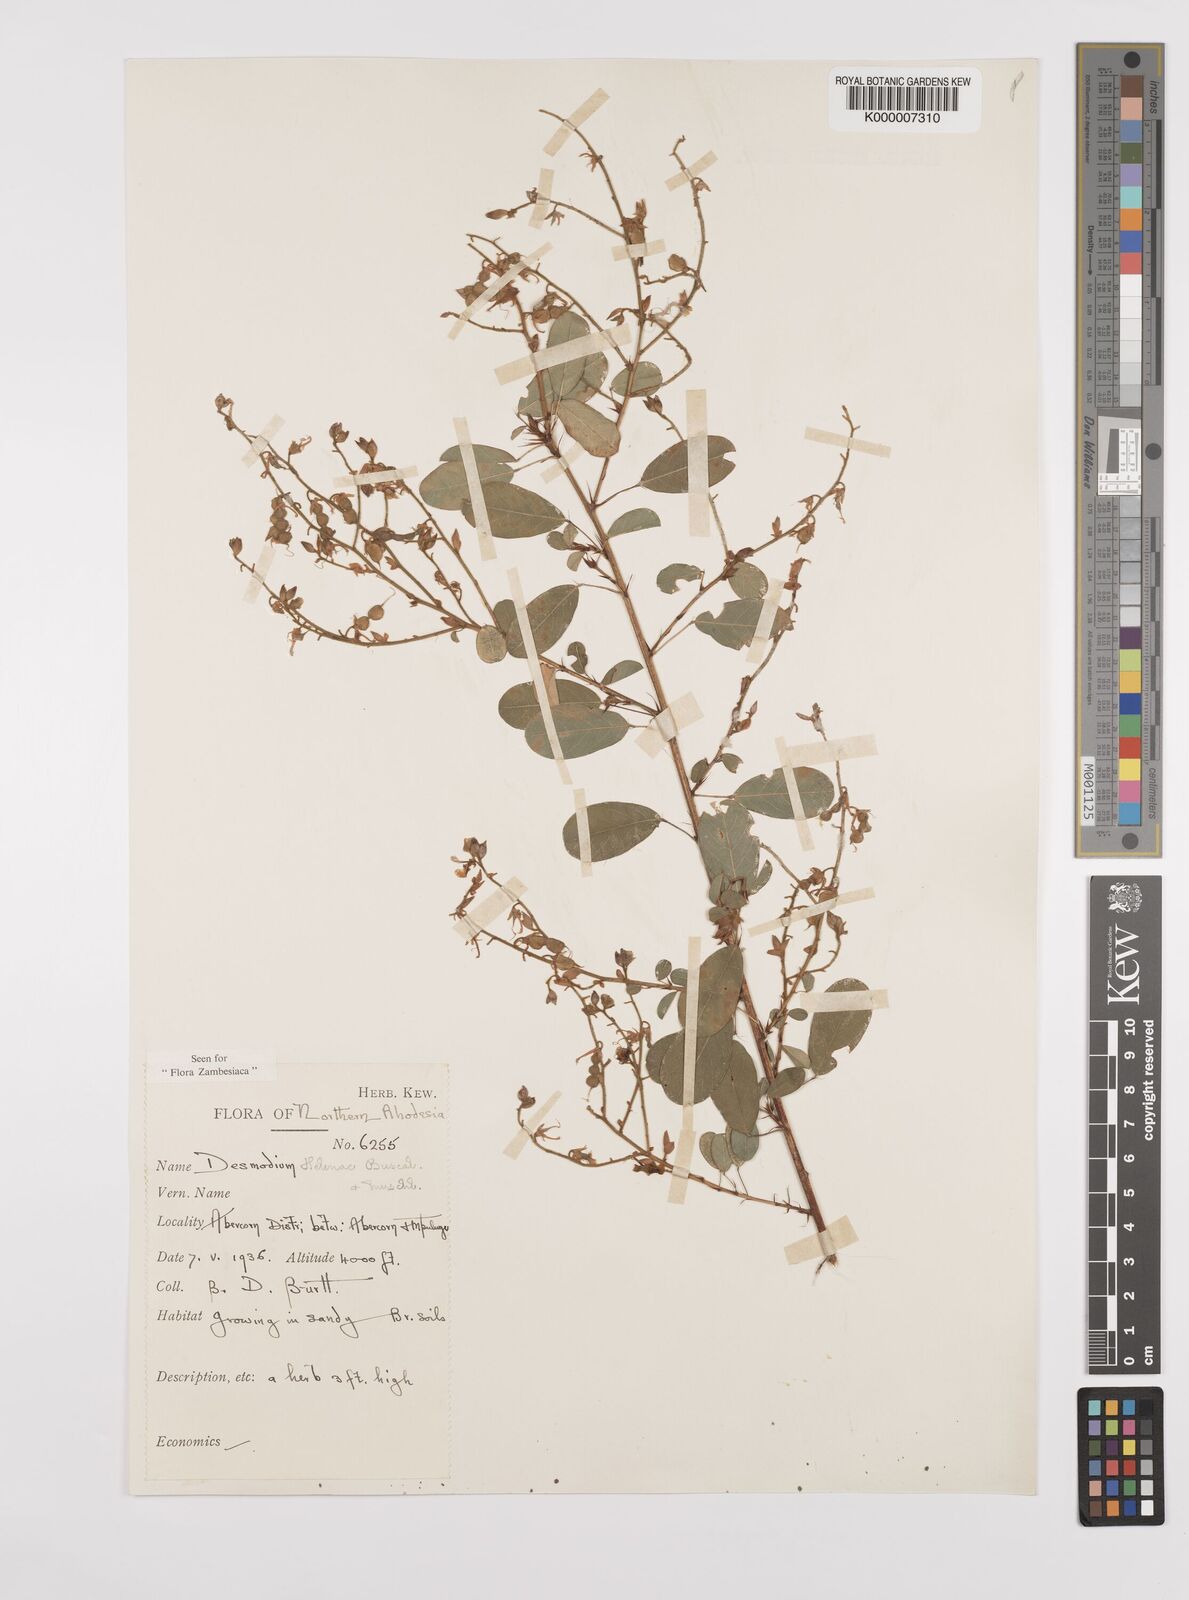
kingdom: Plantae
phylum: Tracheophyta
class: Magnoliopsida
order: Fabales
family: Fabaceae
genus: Grona
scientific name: Grona helenae
